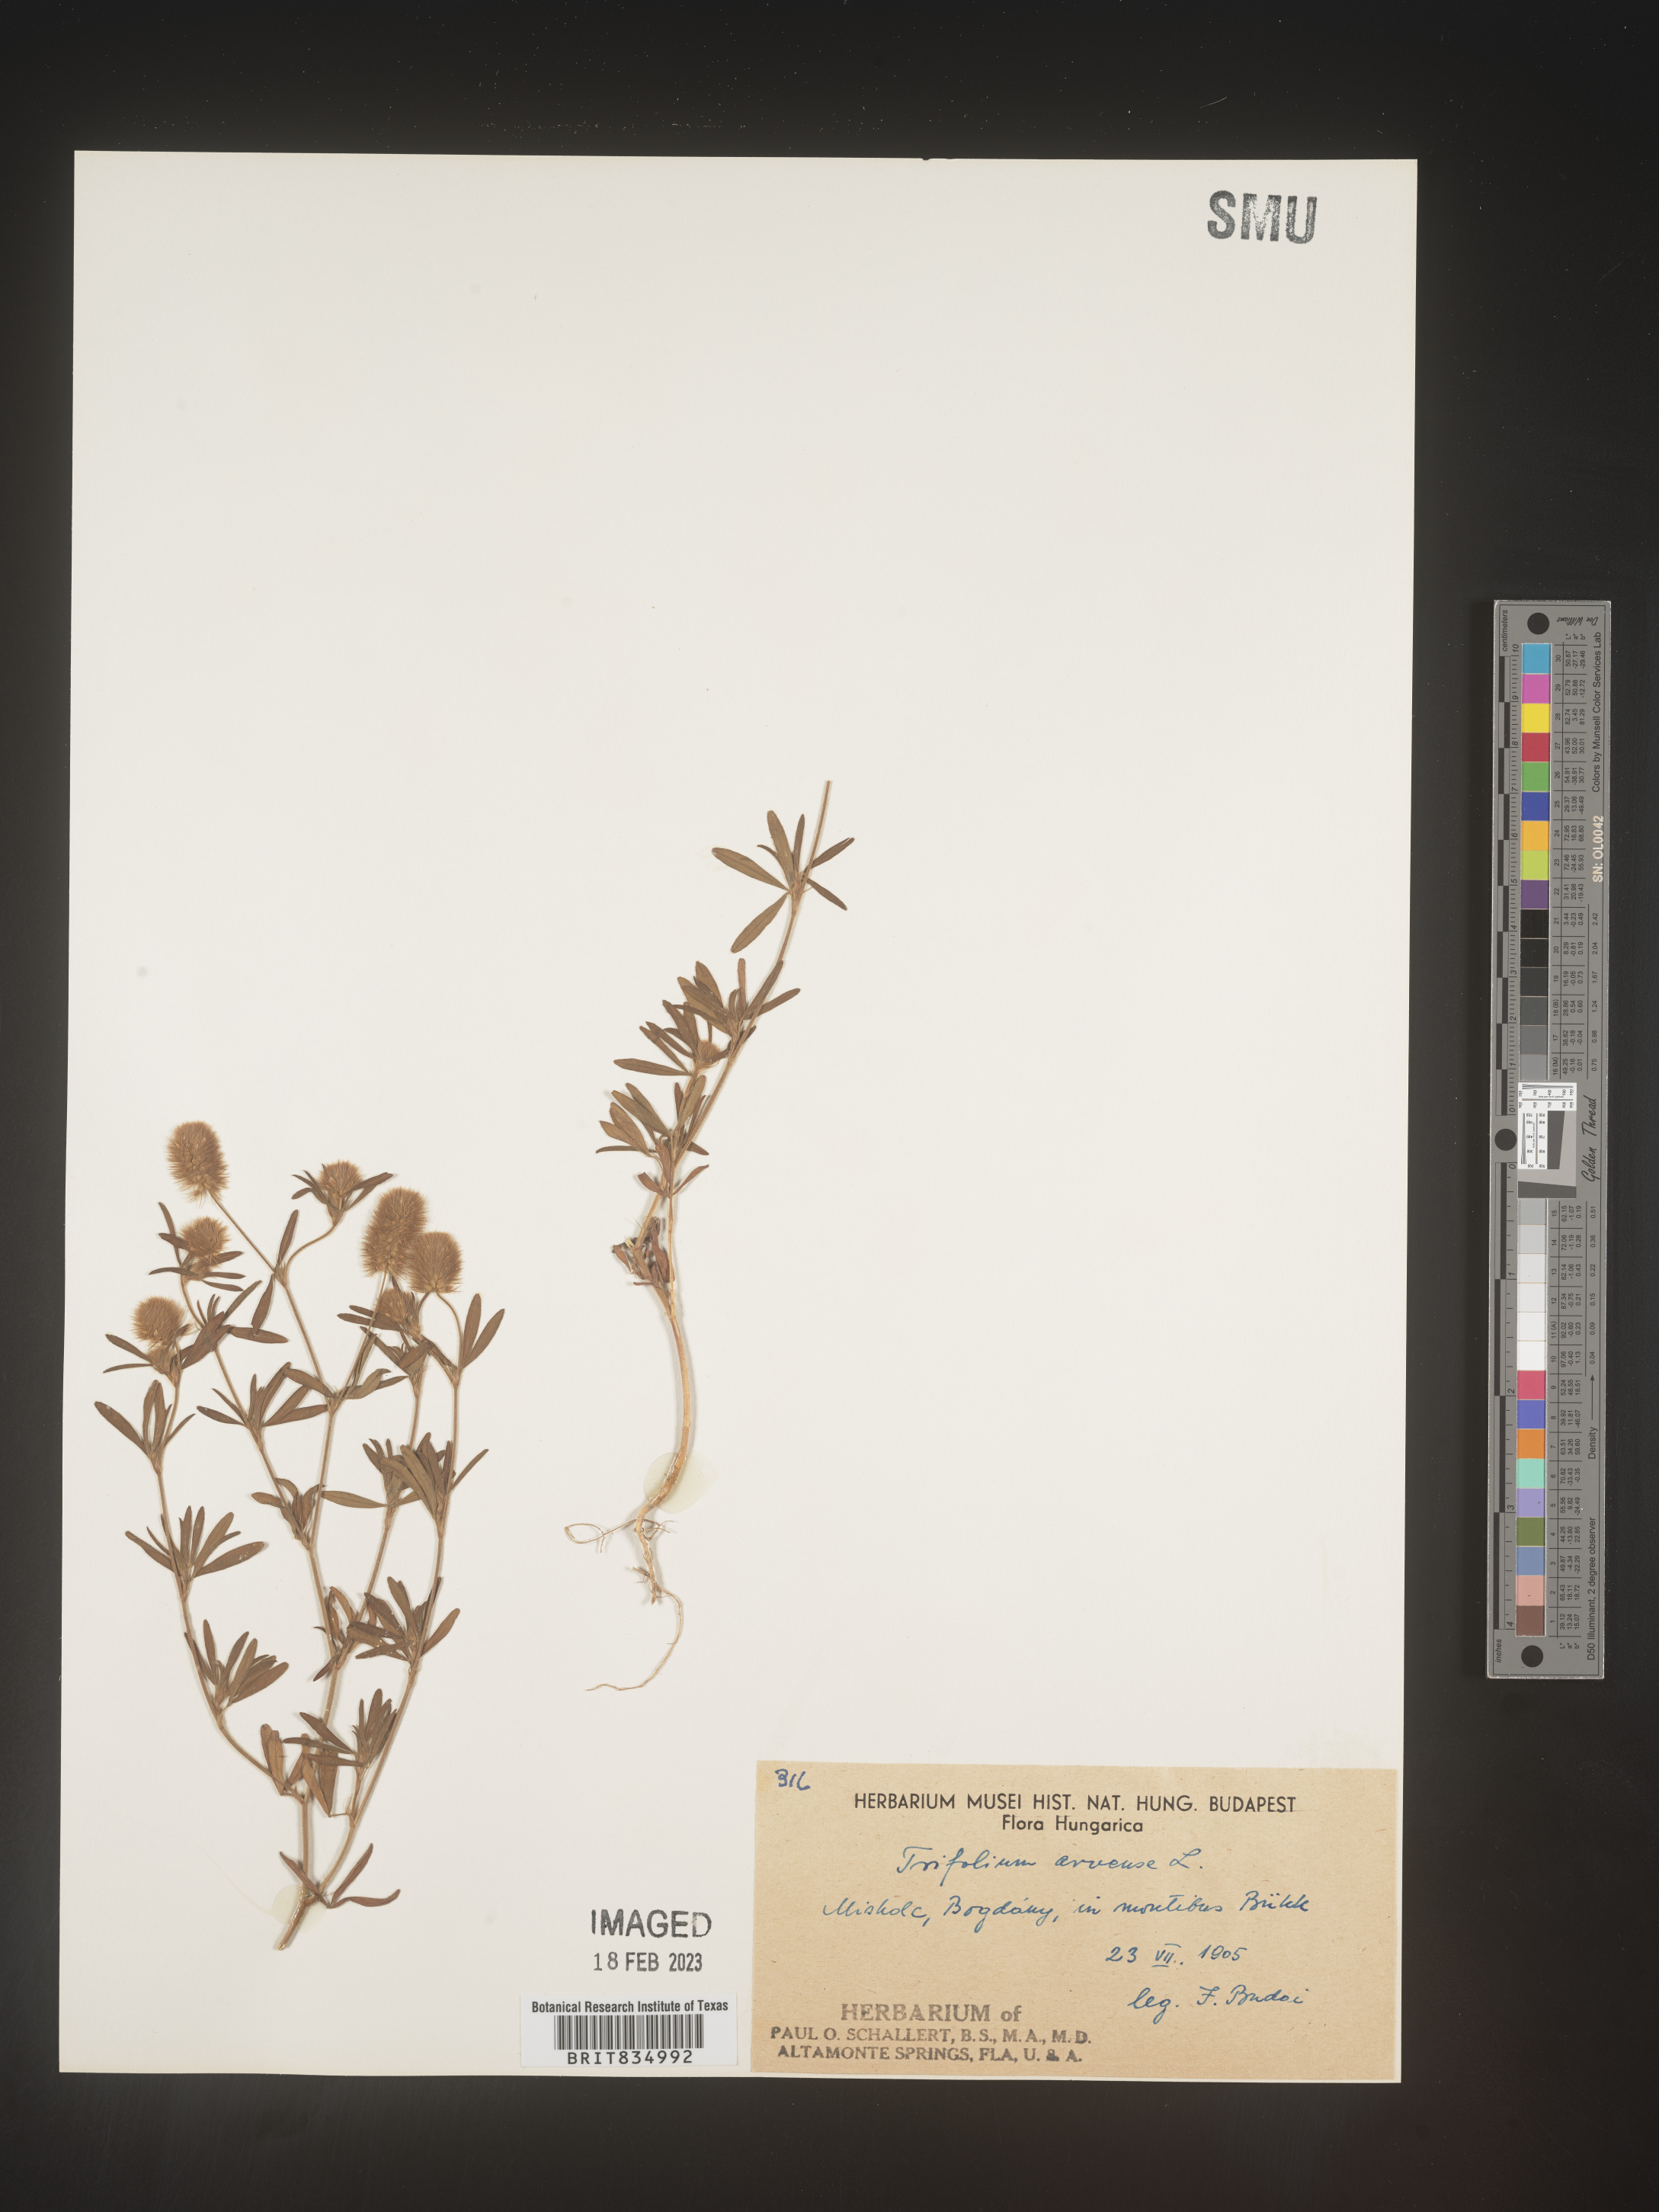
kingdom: Plantae
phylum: Tracheophyta
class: Magnoliopsida
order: Fabales
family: Fabaceae
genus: Trifolium
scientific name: Trifolium
